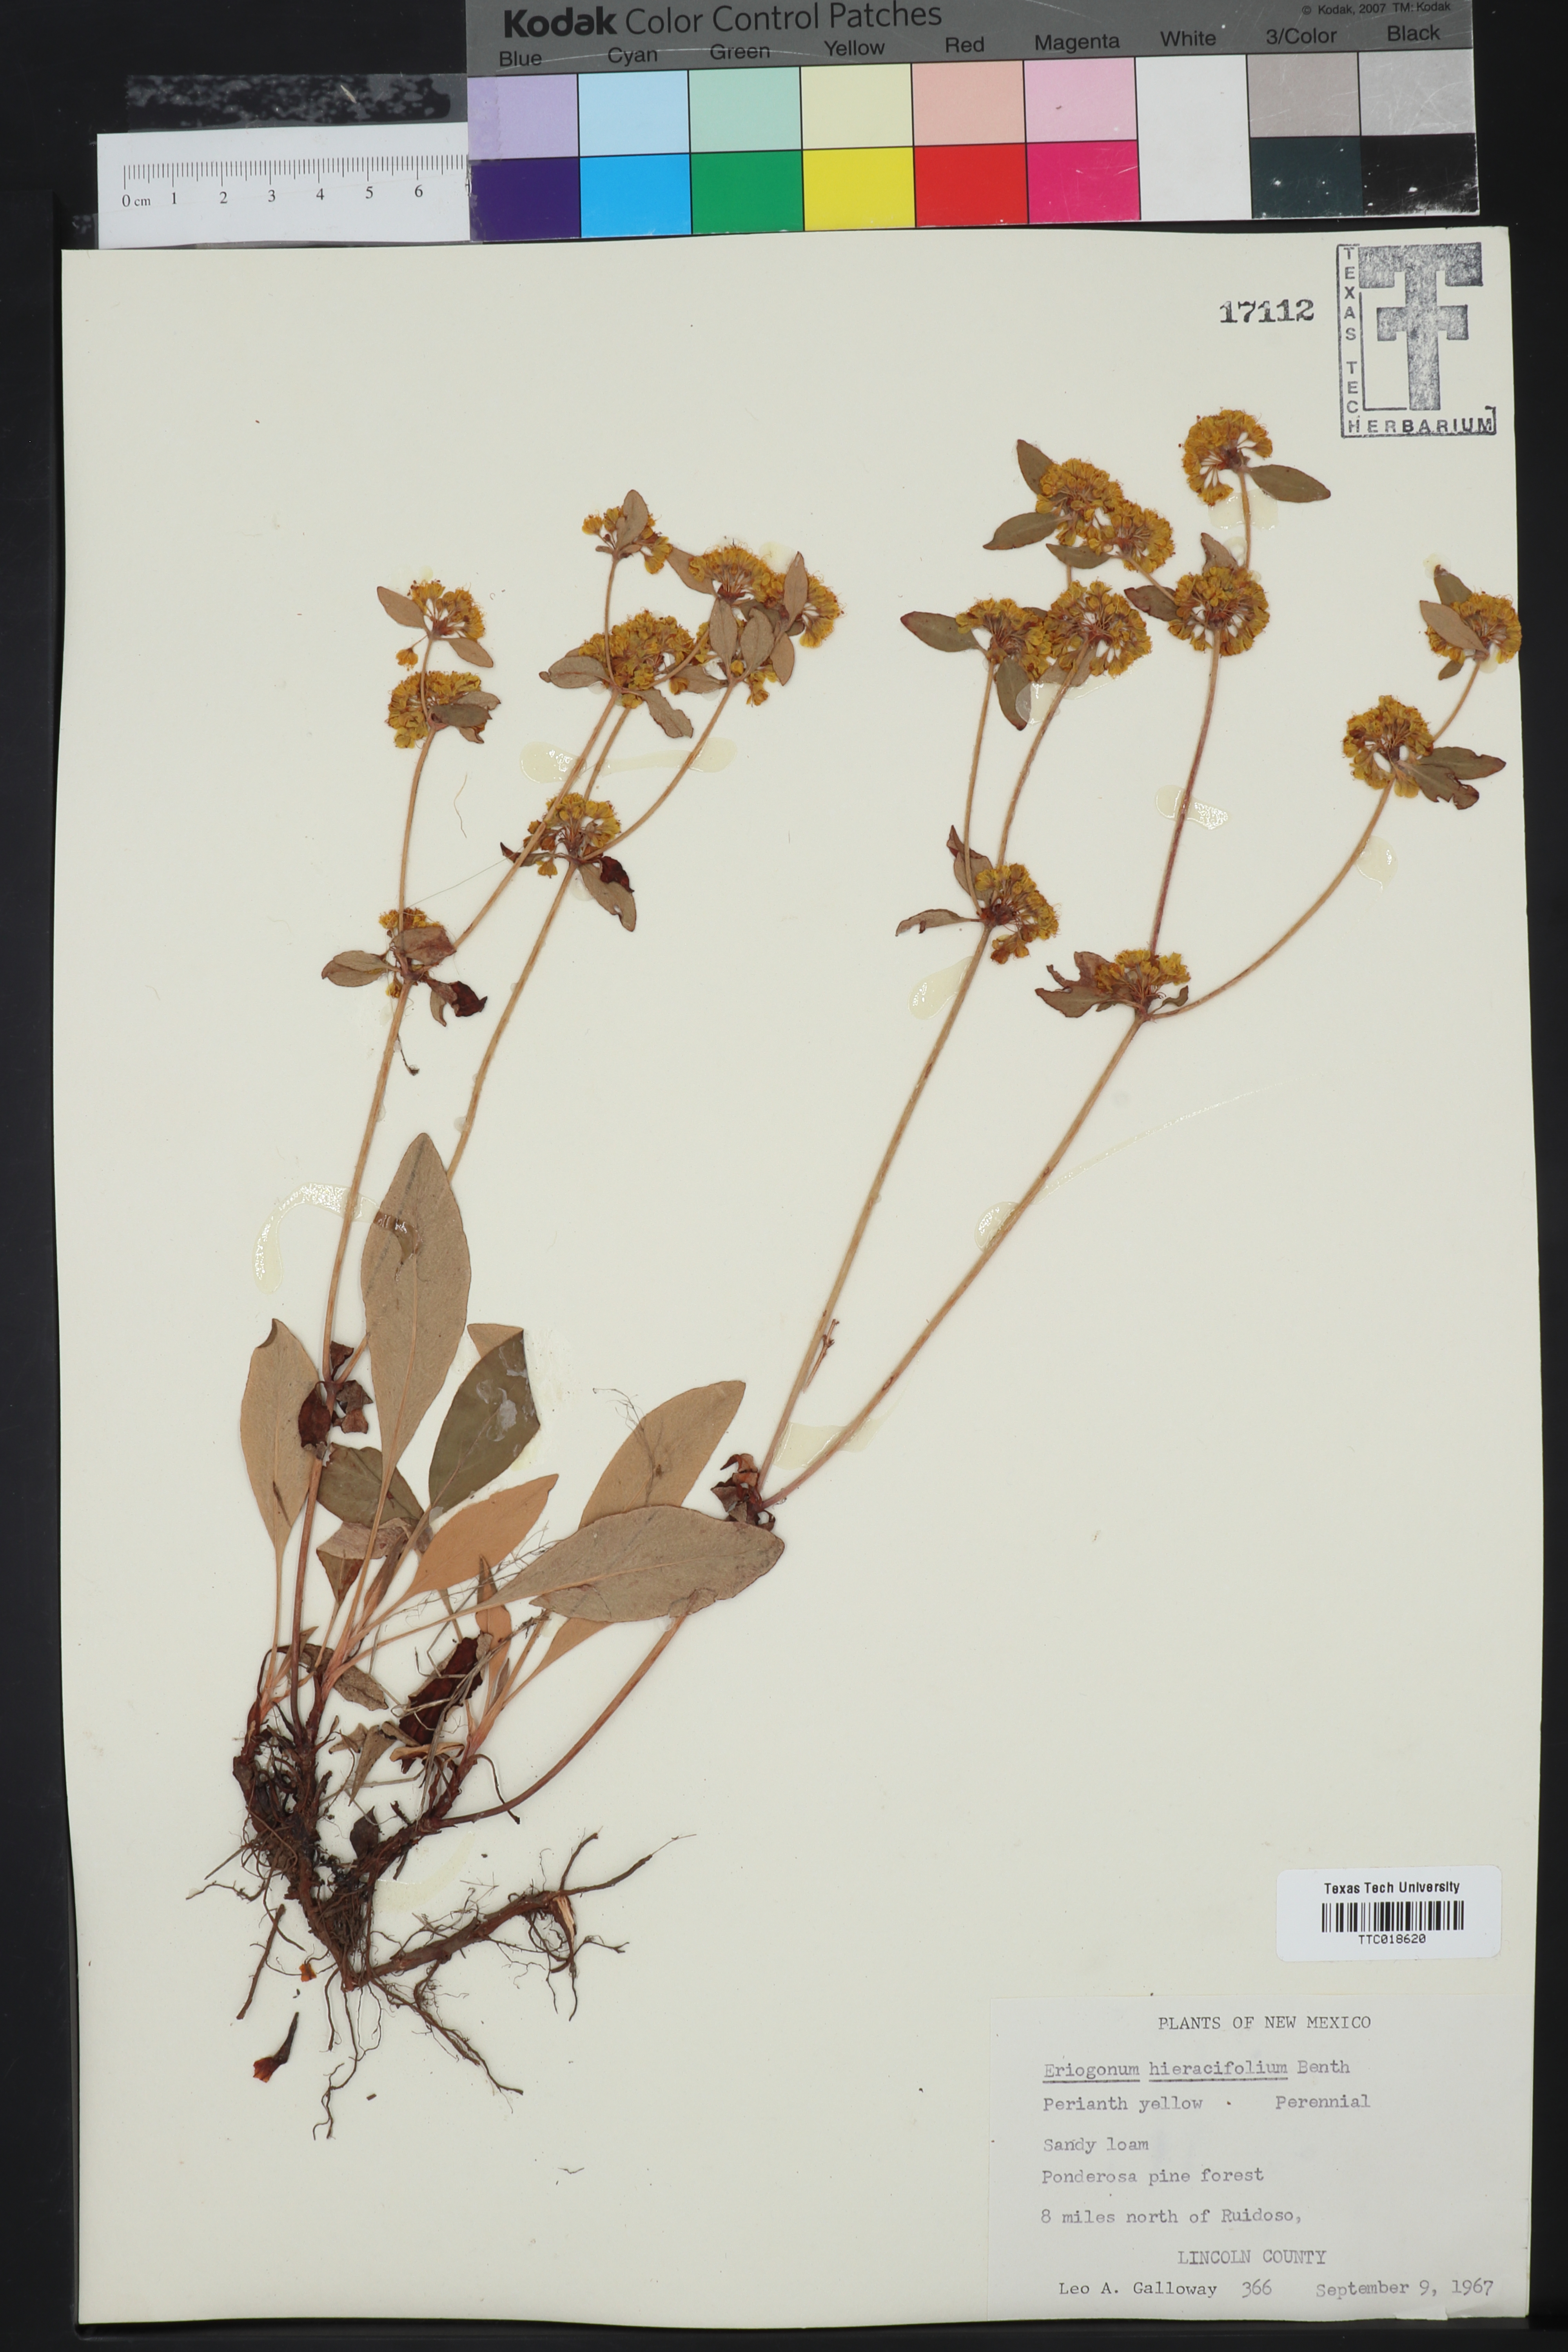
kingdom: Plantae
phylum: Tracheophyta
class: Magnoliopsida
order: Caryophyllales
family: Polygonaceae
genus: Eriogonum
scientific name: Eriogonum hieraciifolium
